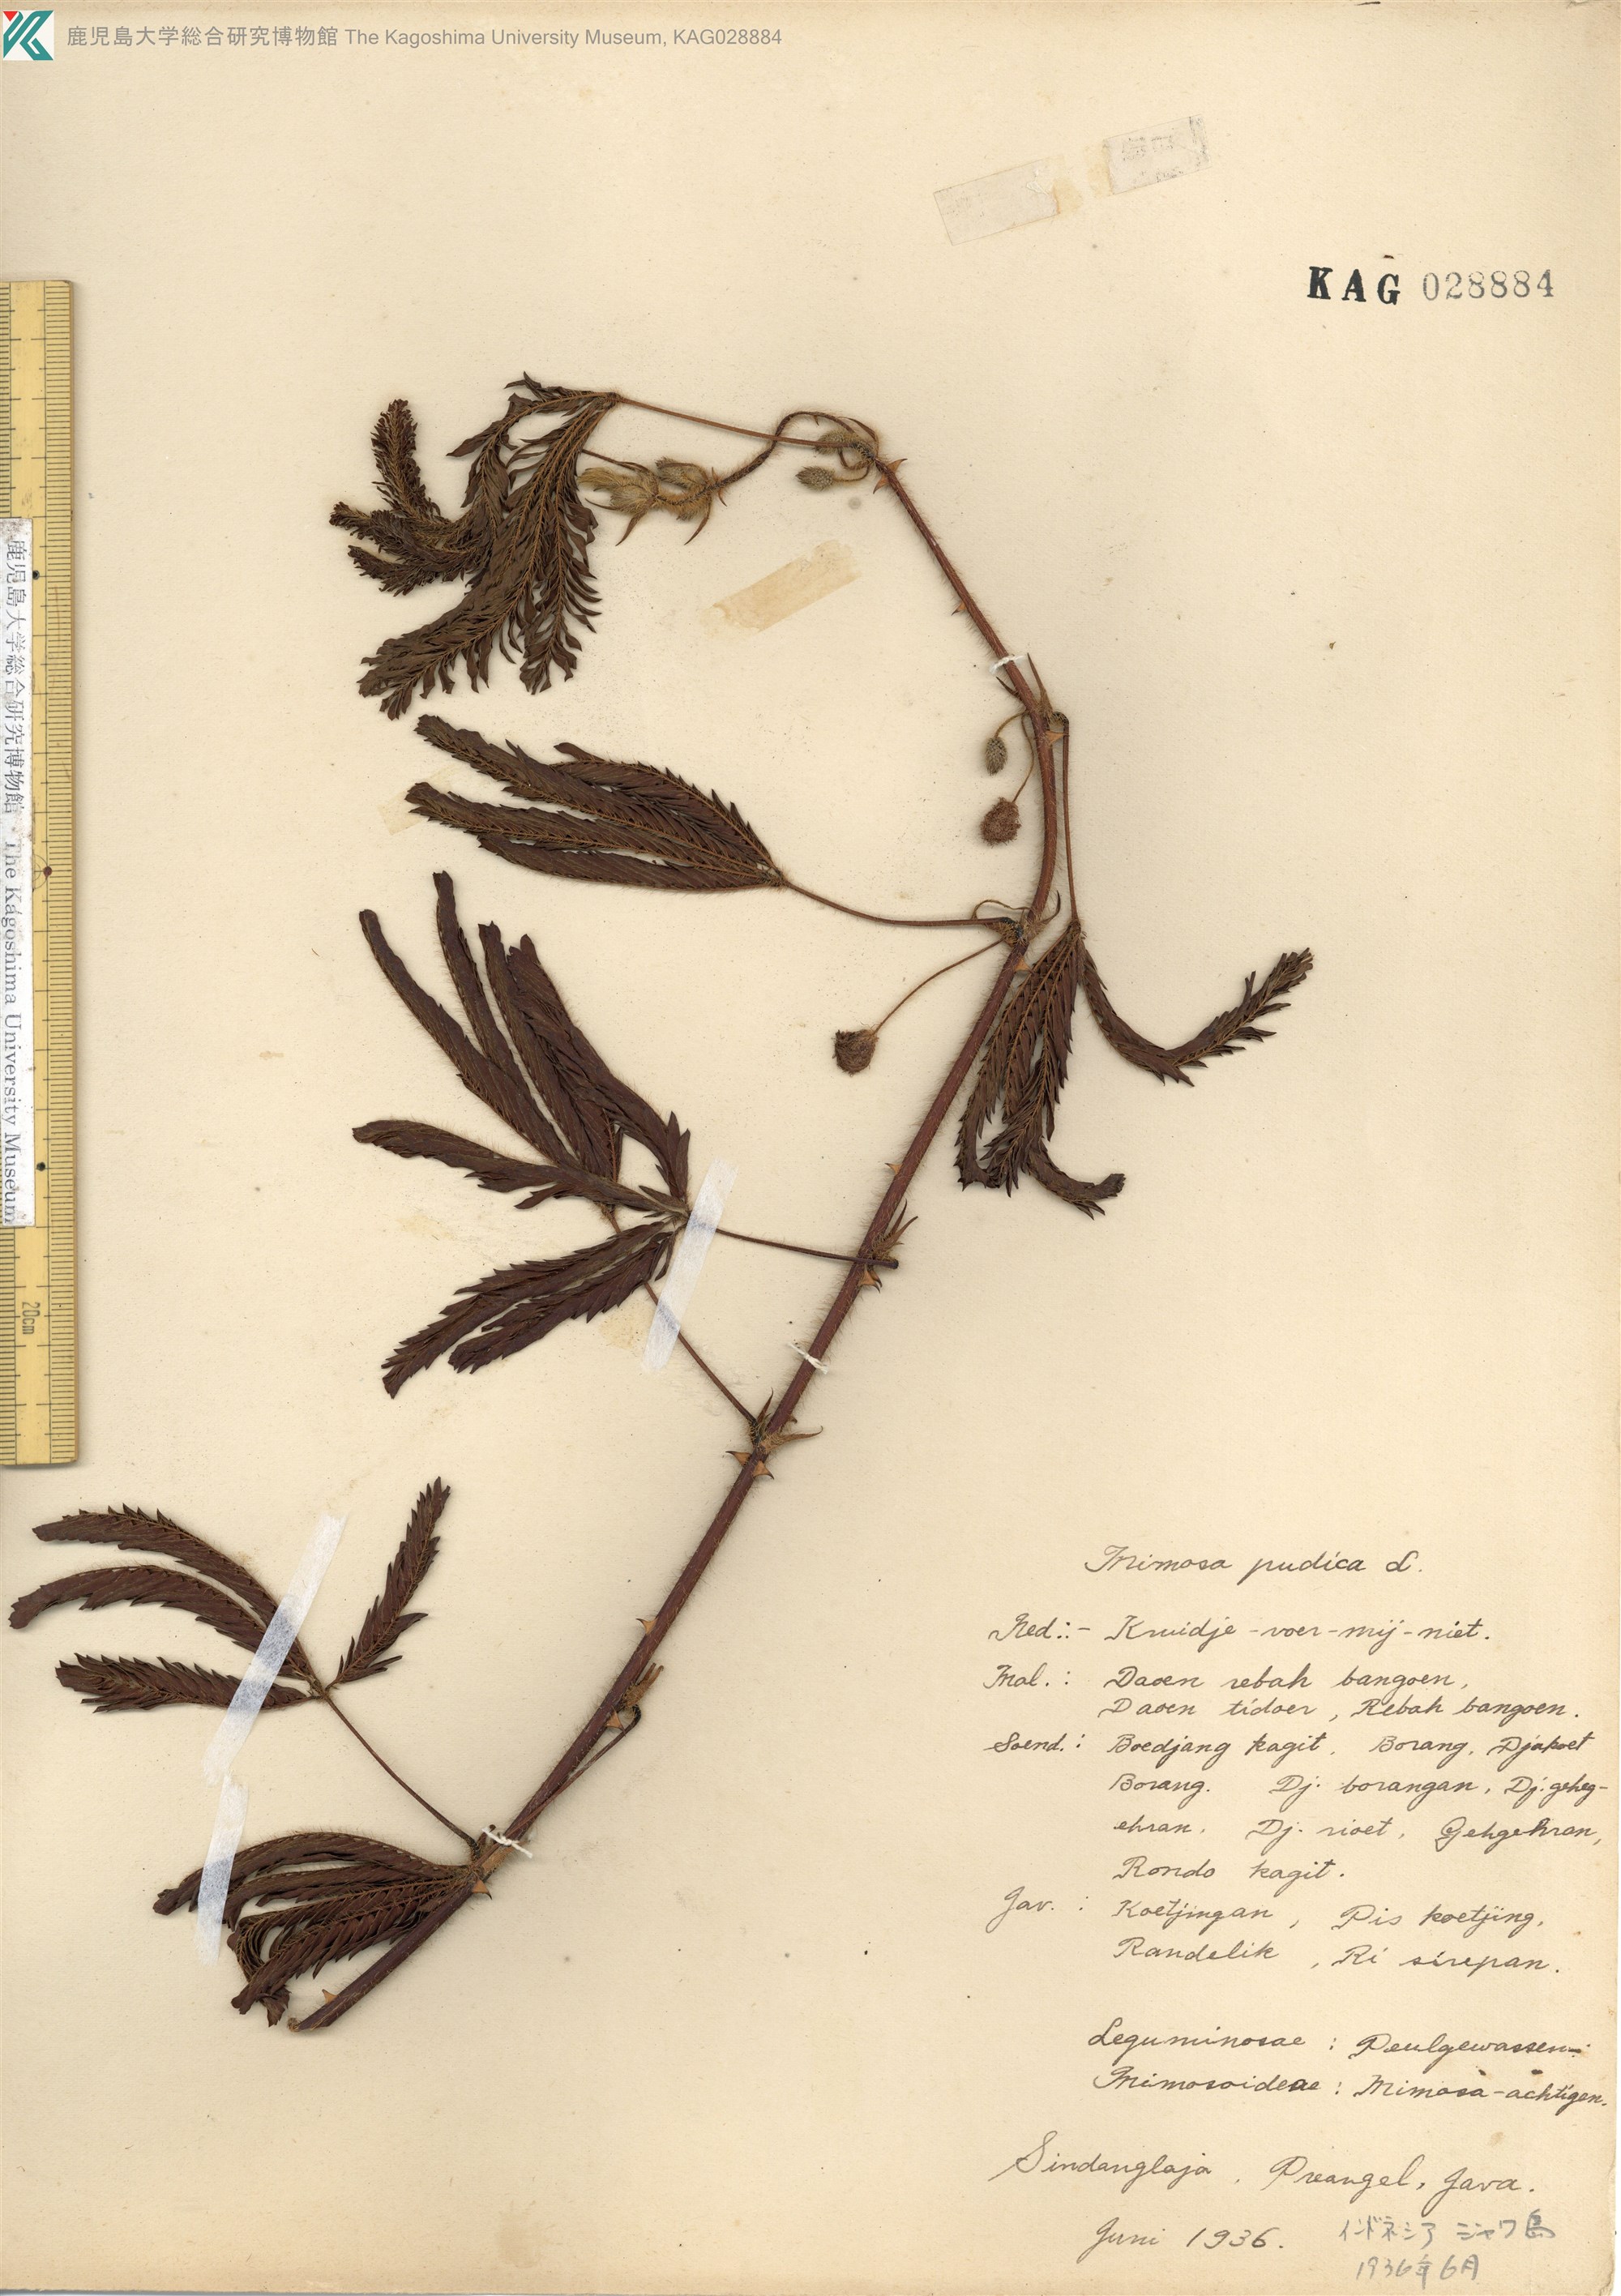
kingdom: Plantae
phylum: Tracheophyta
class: Magnoliopsida
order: Fabales
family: Fabaceae
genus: Mimosa
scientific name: Mimosa pudica
